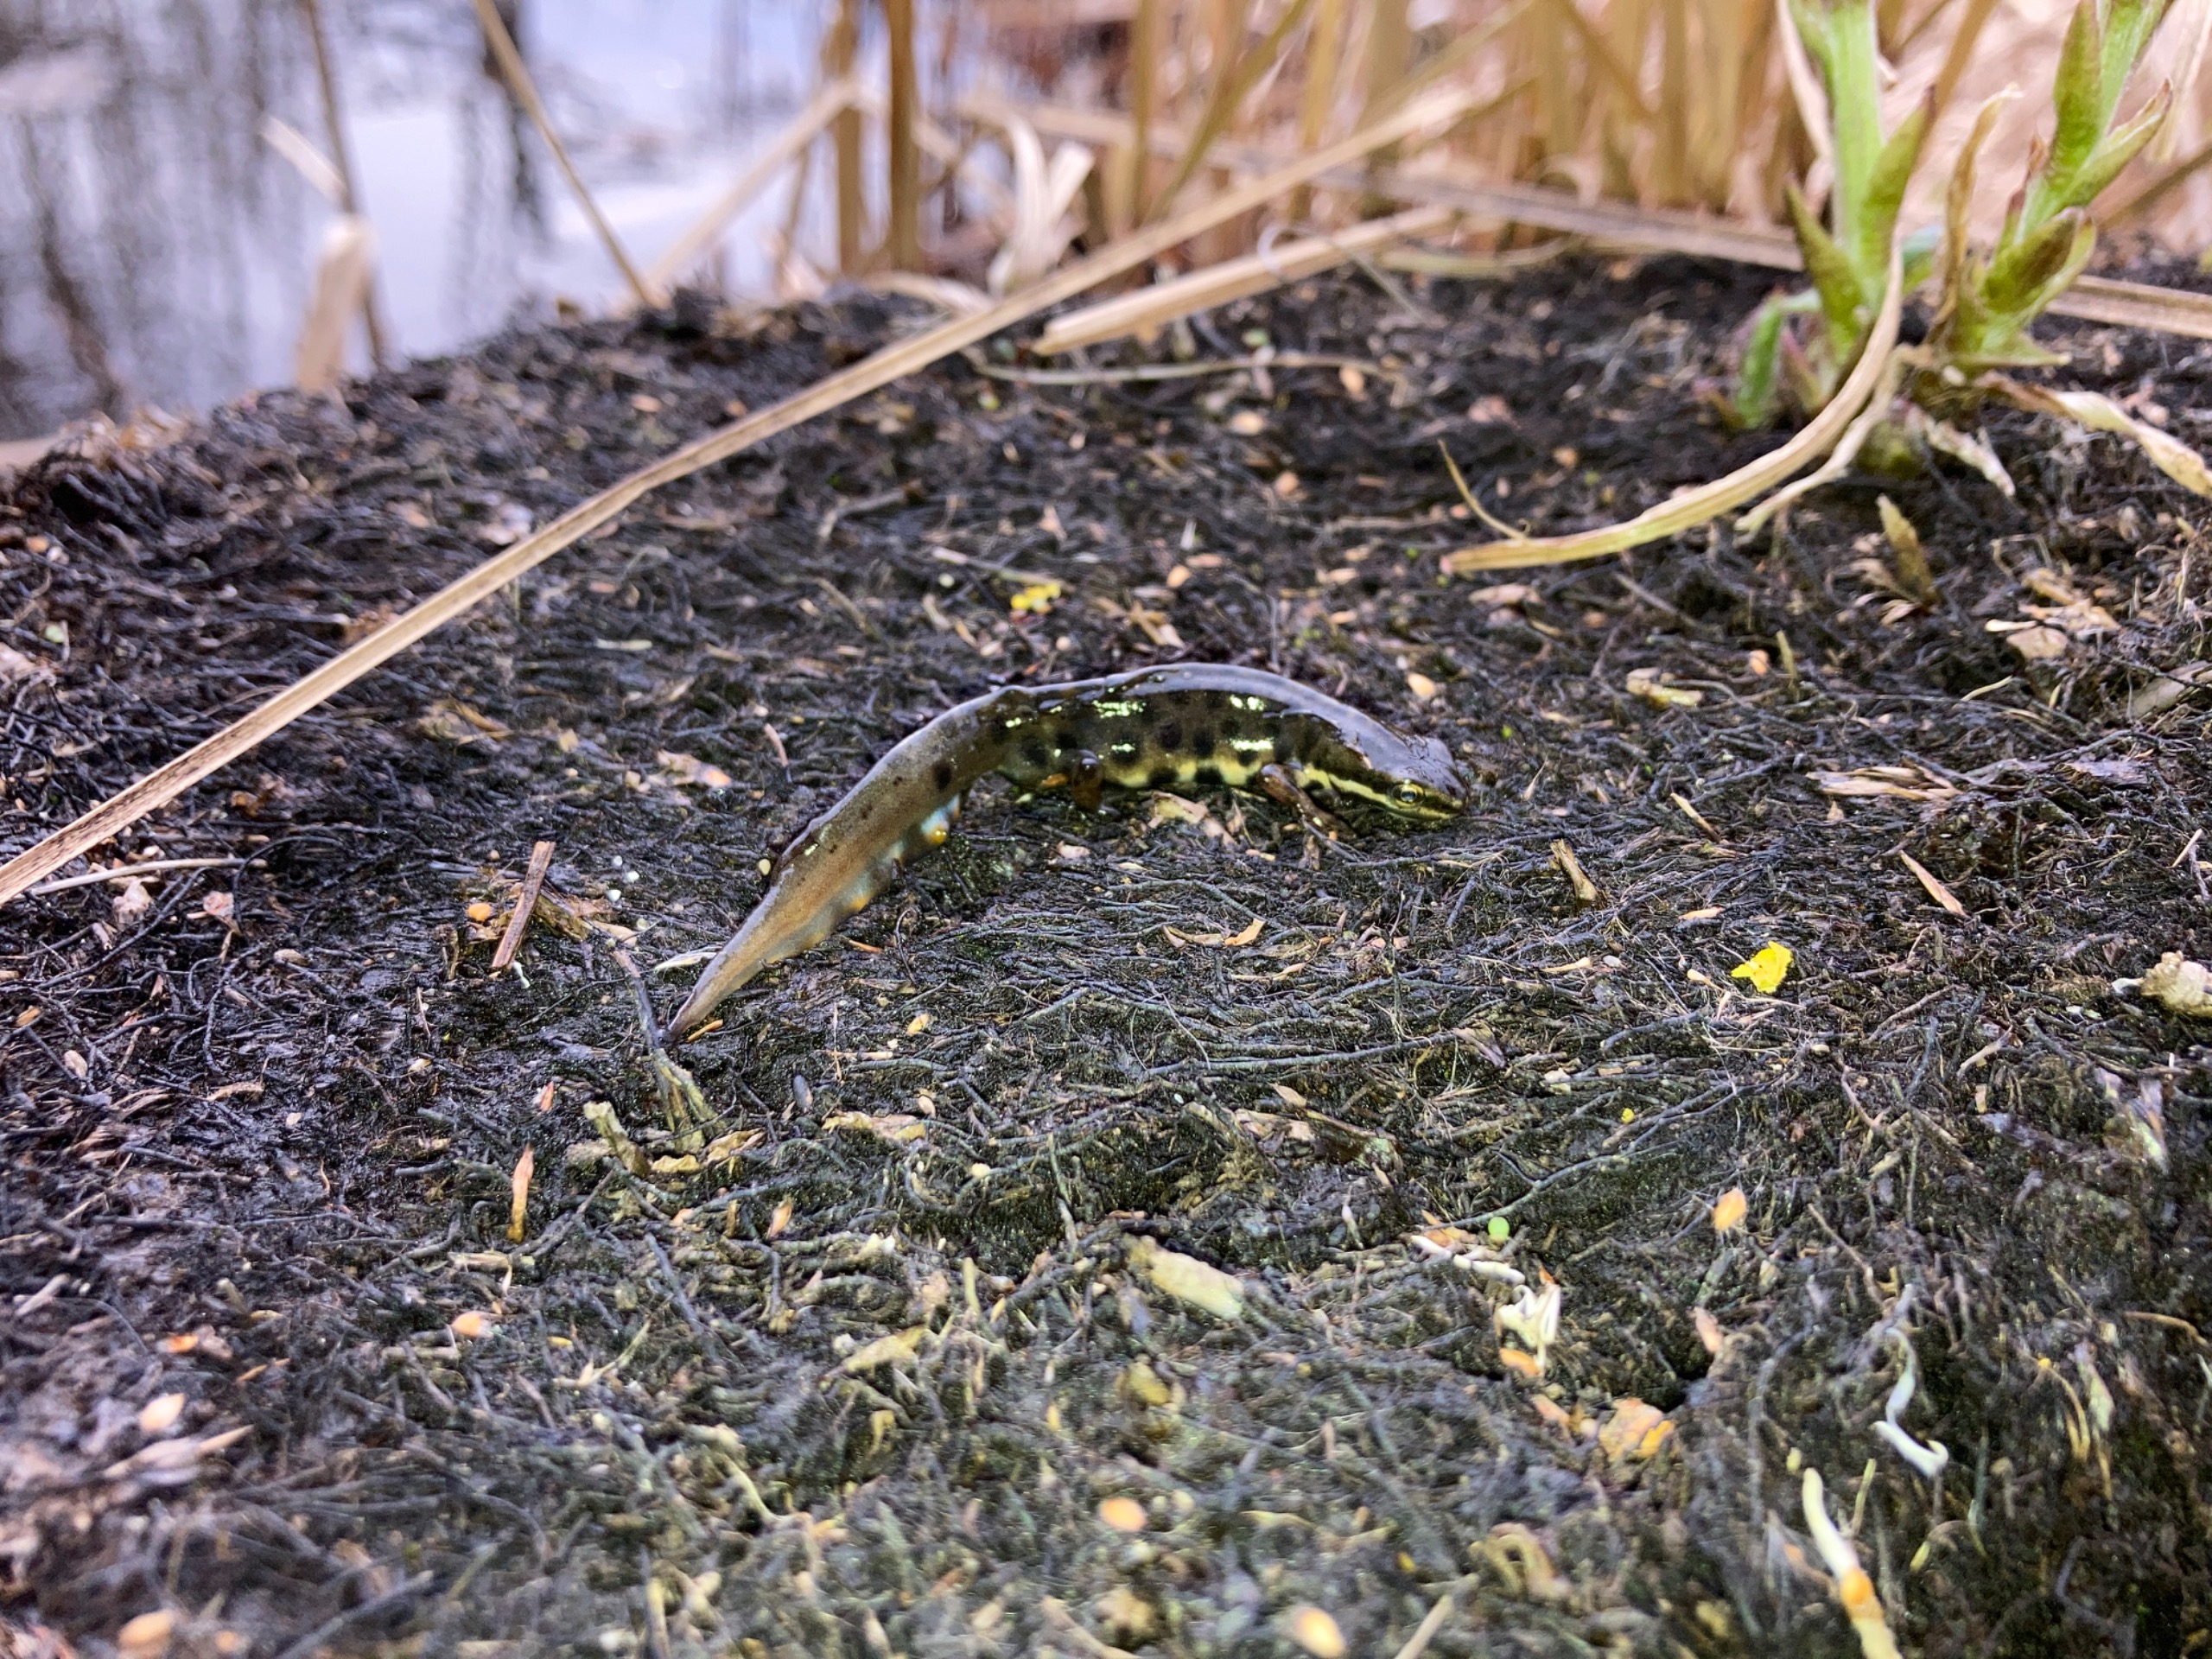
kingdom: Animalia
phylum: Chordata
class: Amphibia
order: Caudata
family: Salamandridae
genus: Lissotriton
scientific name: Lissotriton vulgaris
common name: Lille vandsalamander
